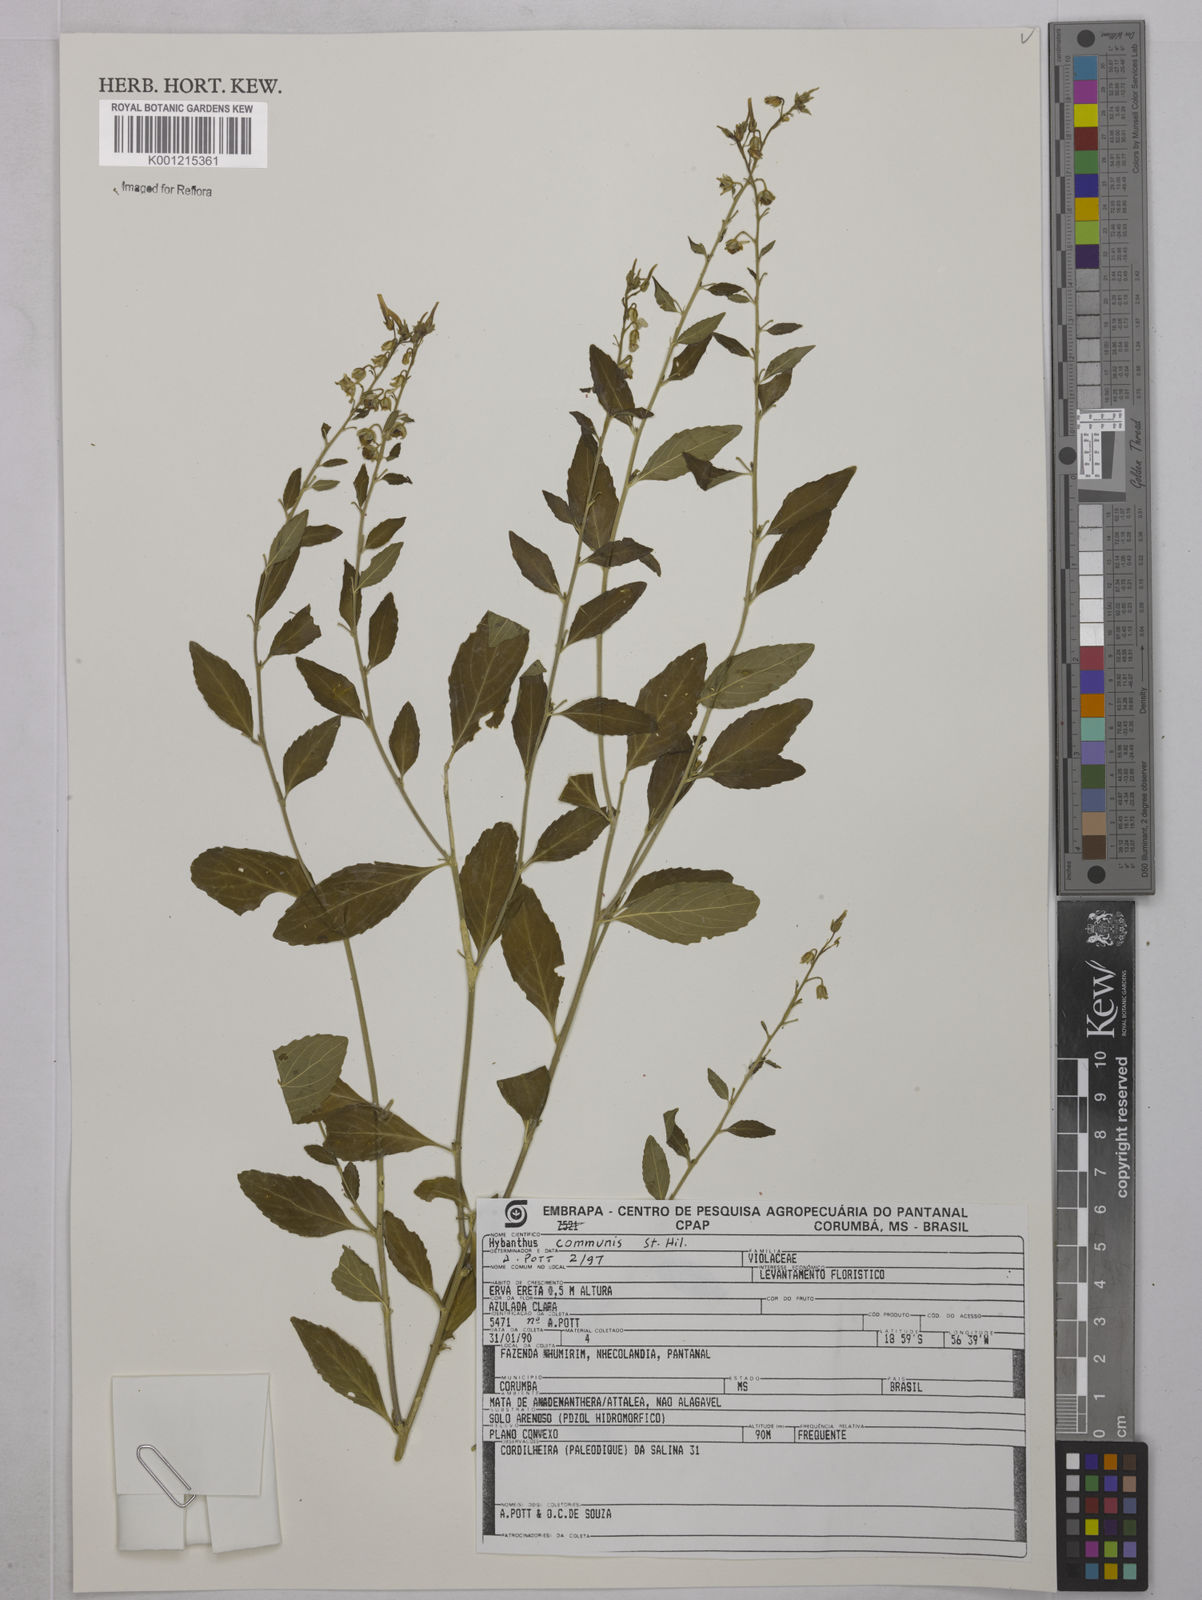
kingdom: Plantae
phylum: Tracheophyta
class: Magnoliopsida
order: Malpighiales
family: Violaceae
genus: Pombalia
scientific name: Pombalia communis
